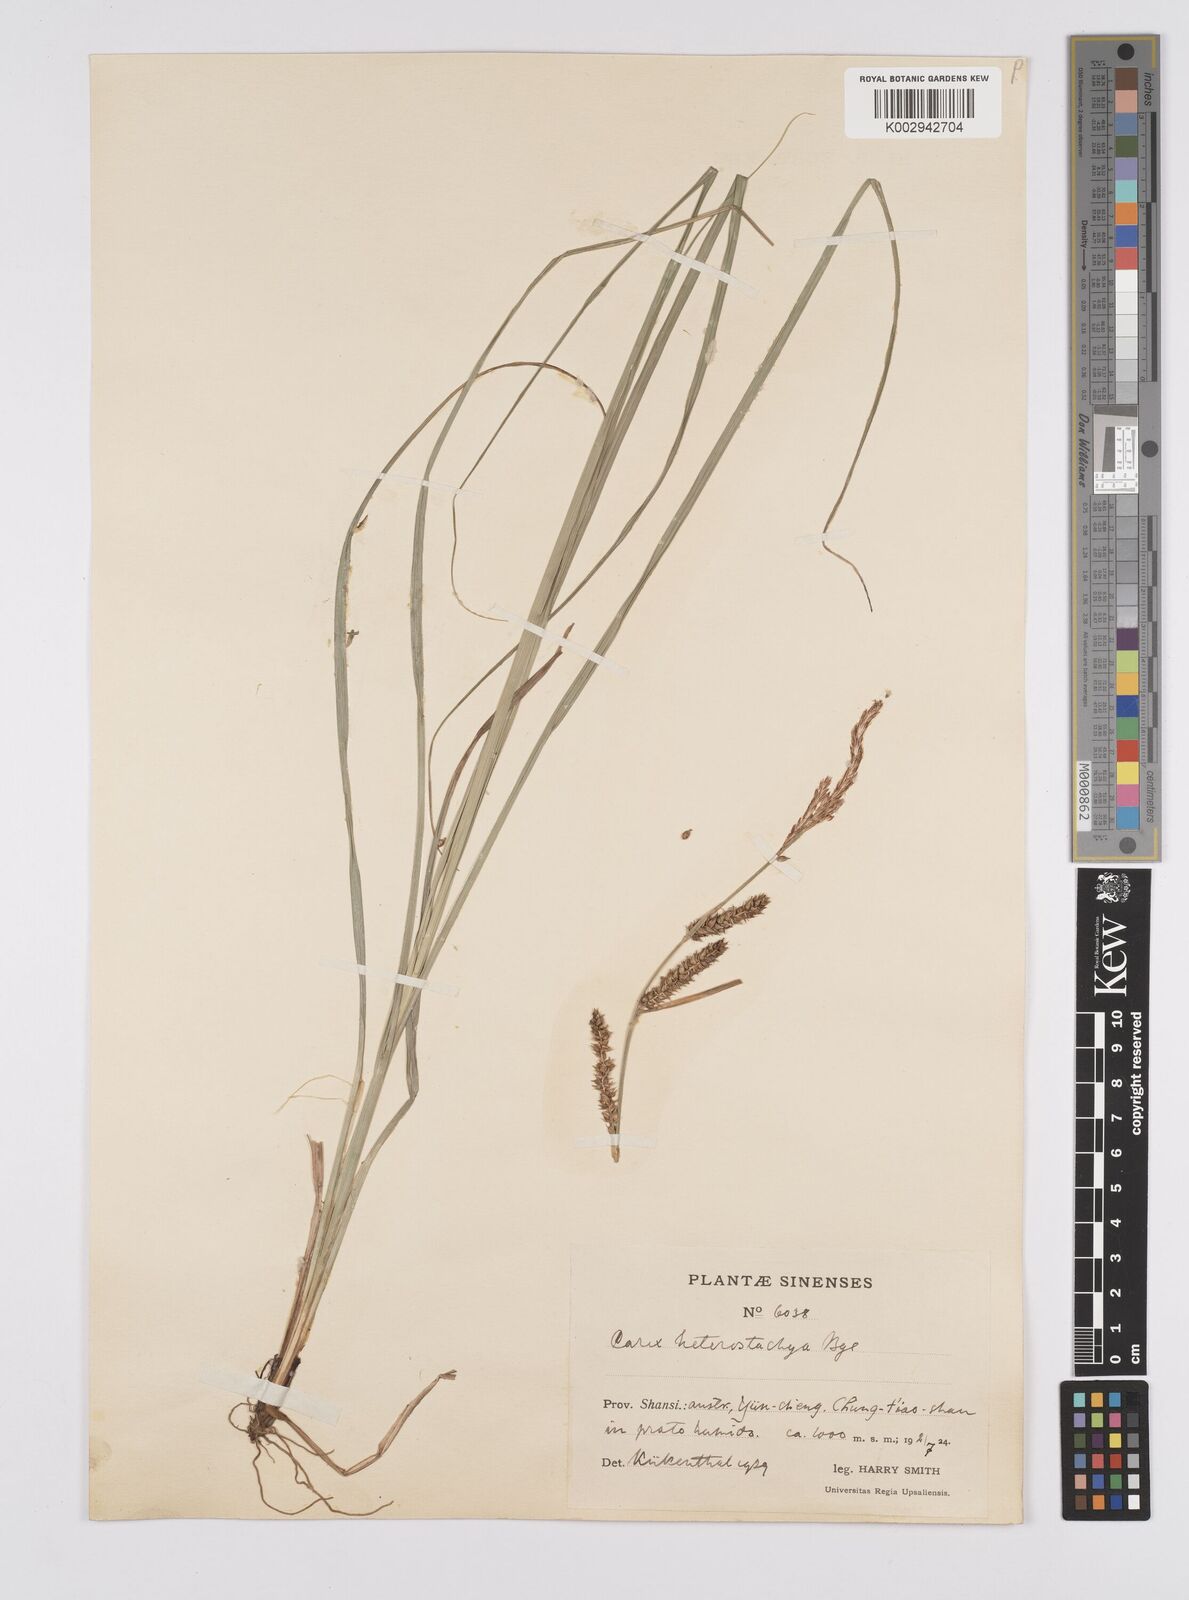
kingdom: Plantae
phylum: Tracheophyta
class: Liliopsida
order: Poales
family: Cyperaceae
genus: Carex
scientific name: Carex heterostachya
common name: Different-spike sedge
